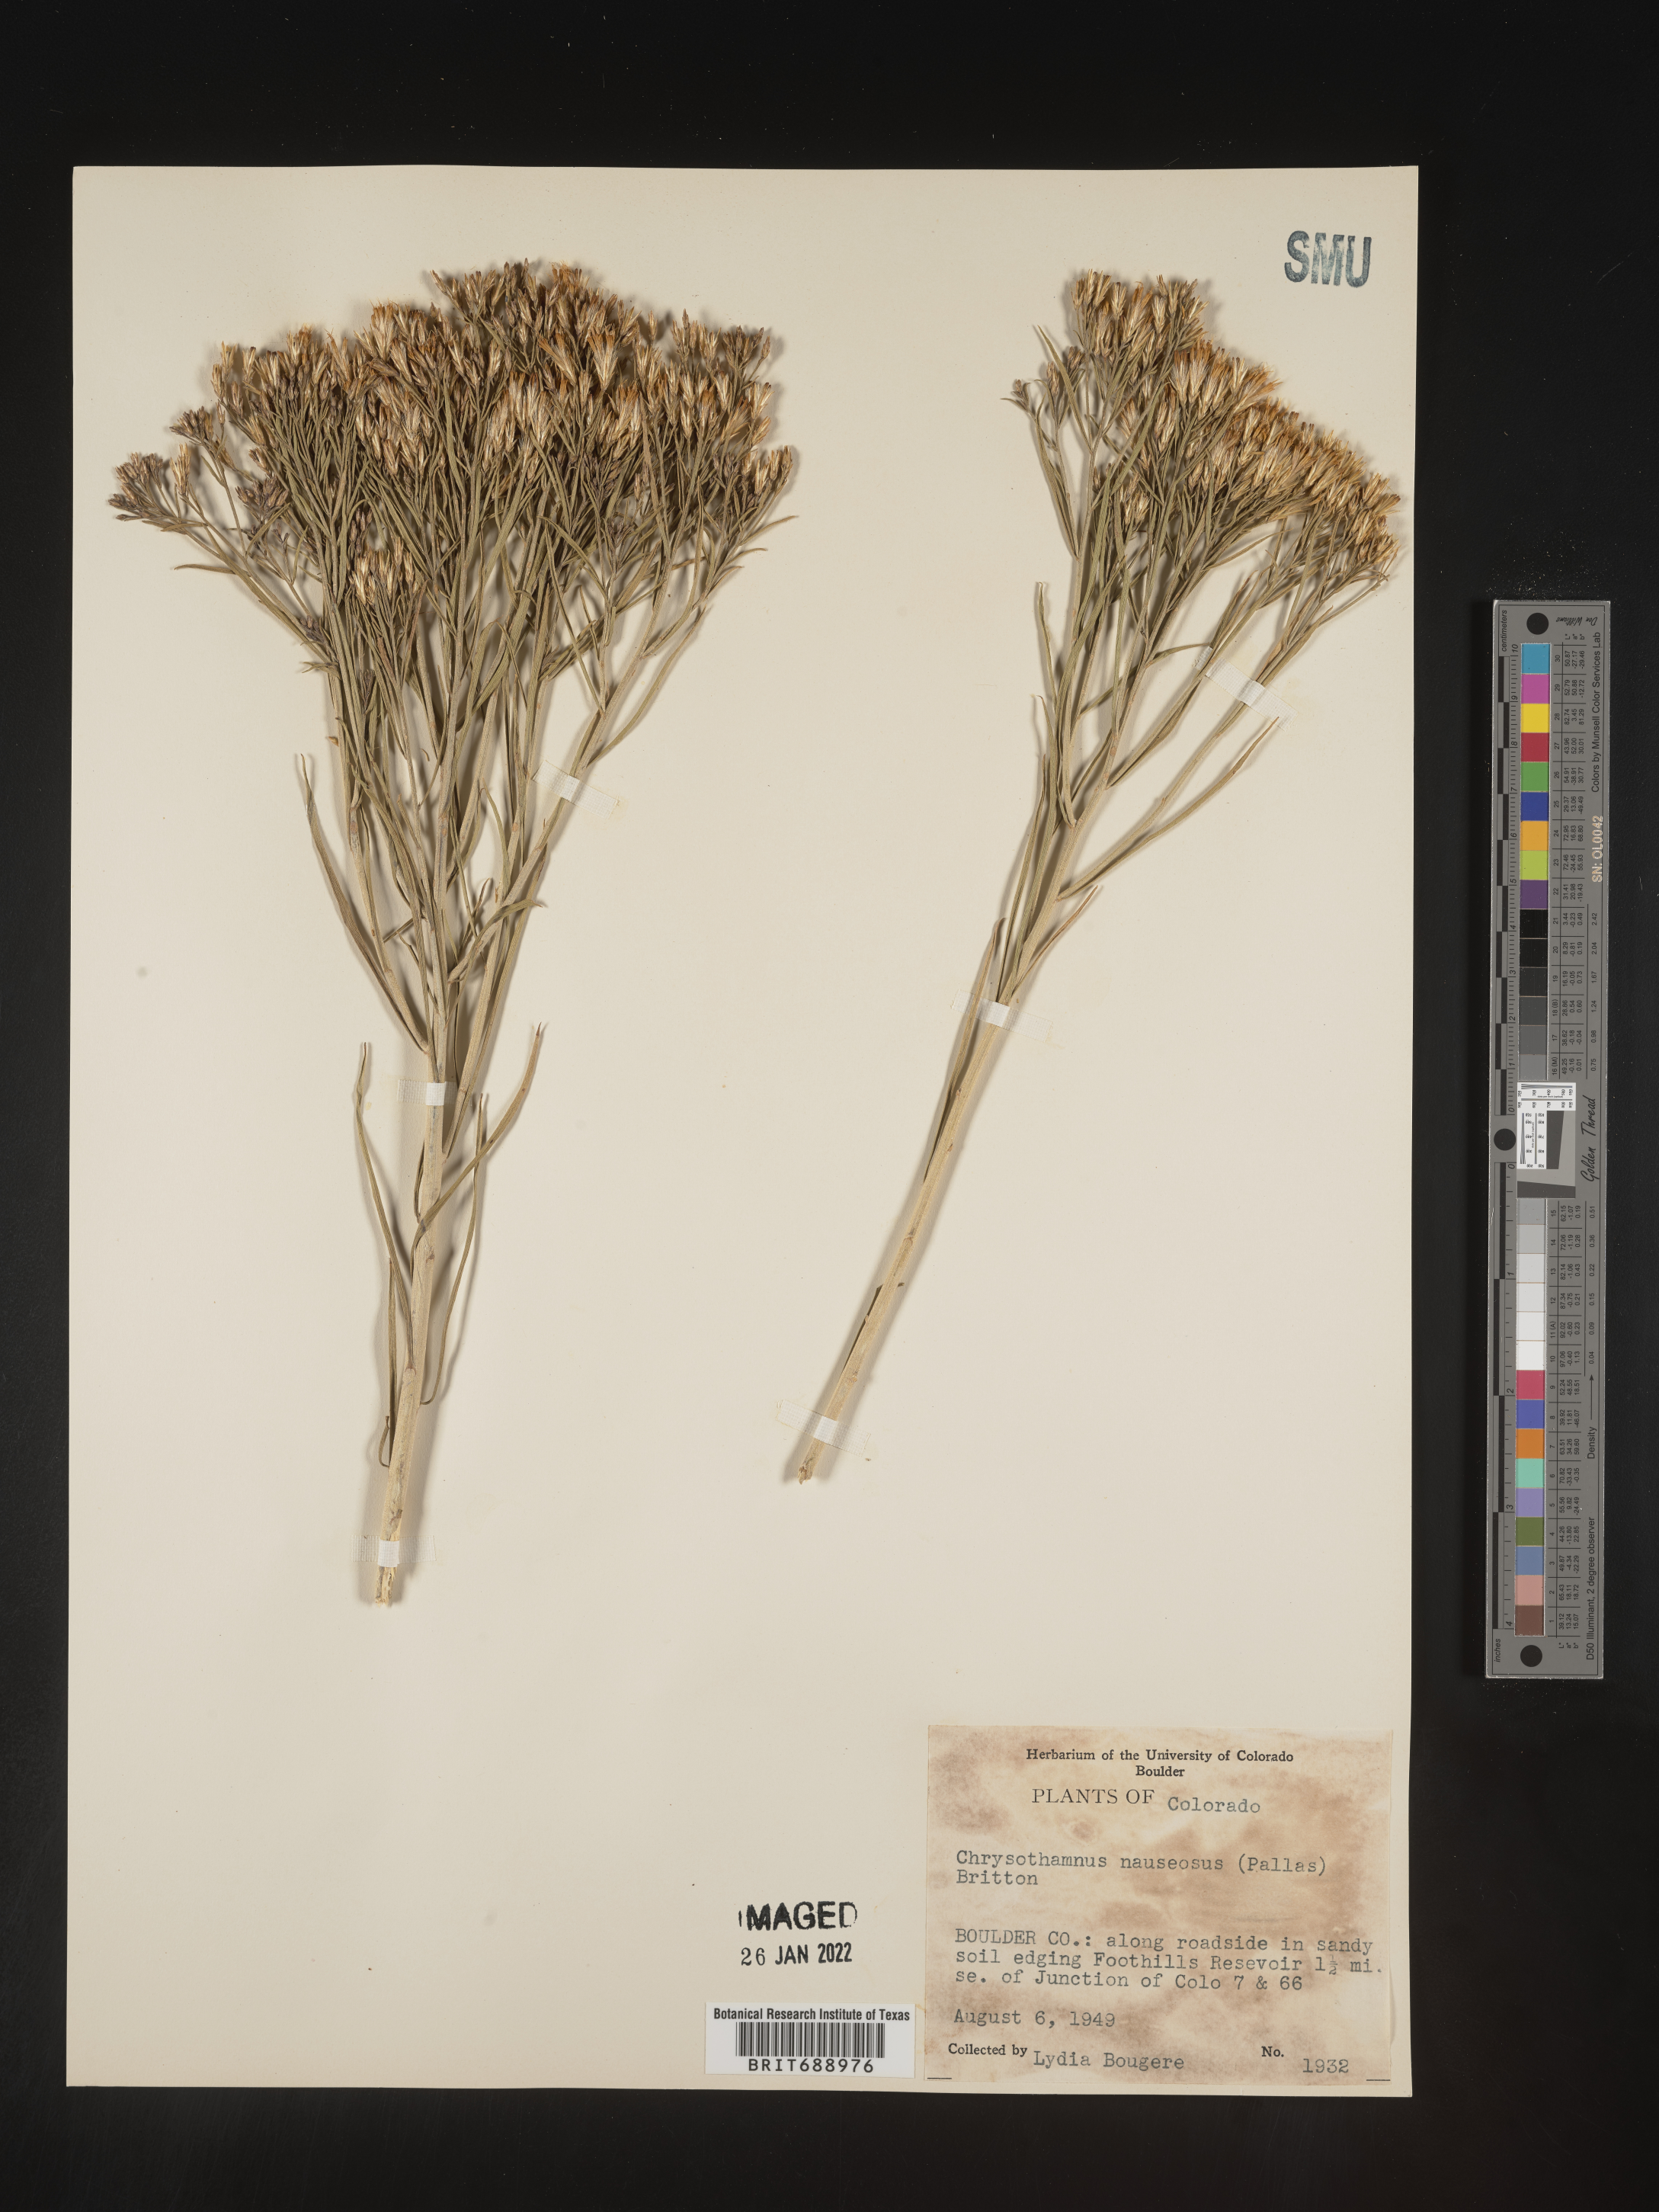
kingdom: Plantae
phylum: Tracheophyta
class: Magnoliopsida
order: Asterales
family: Asteraceae
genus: Ericameria
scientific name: Ericameria nauseosa
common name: Rubber rabbitbrush
